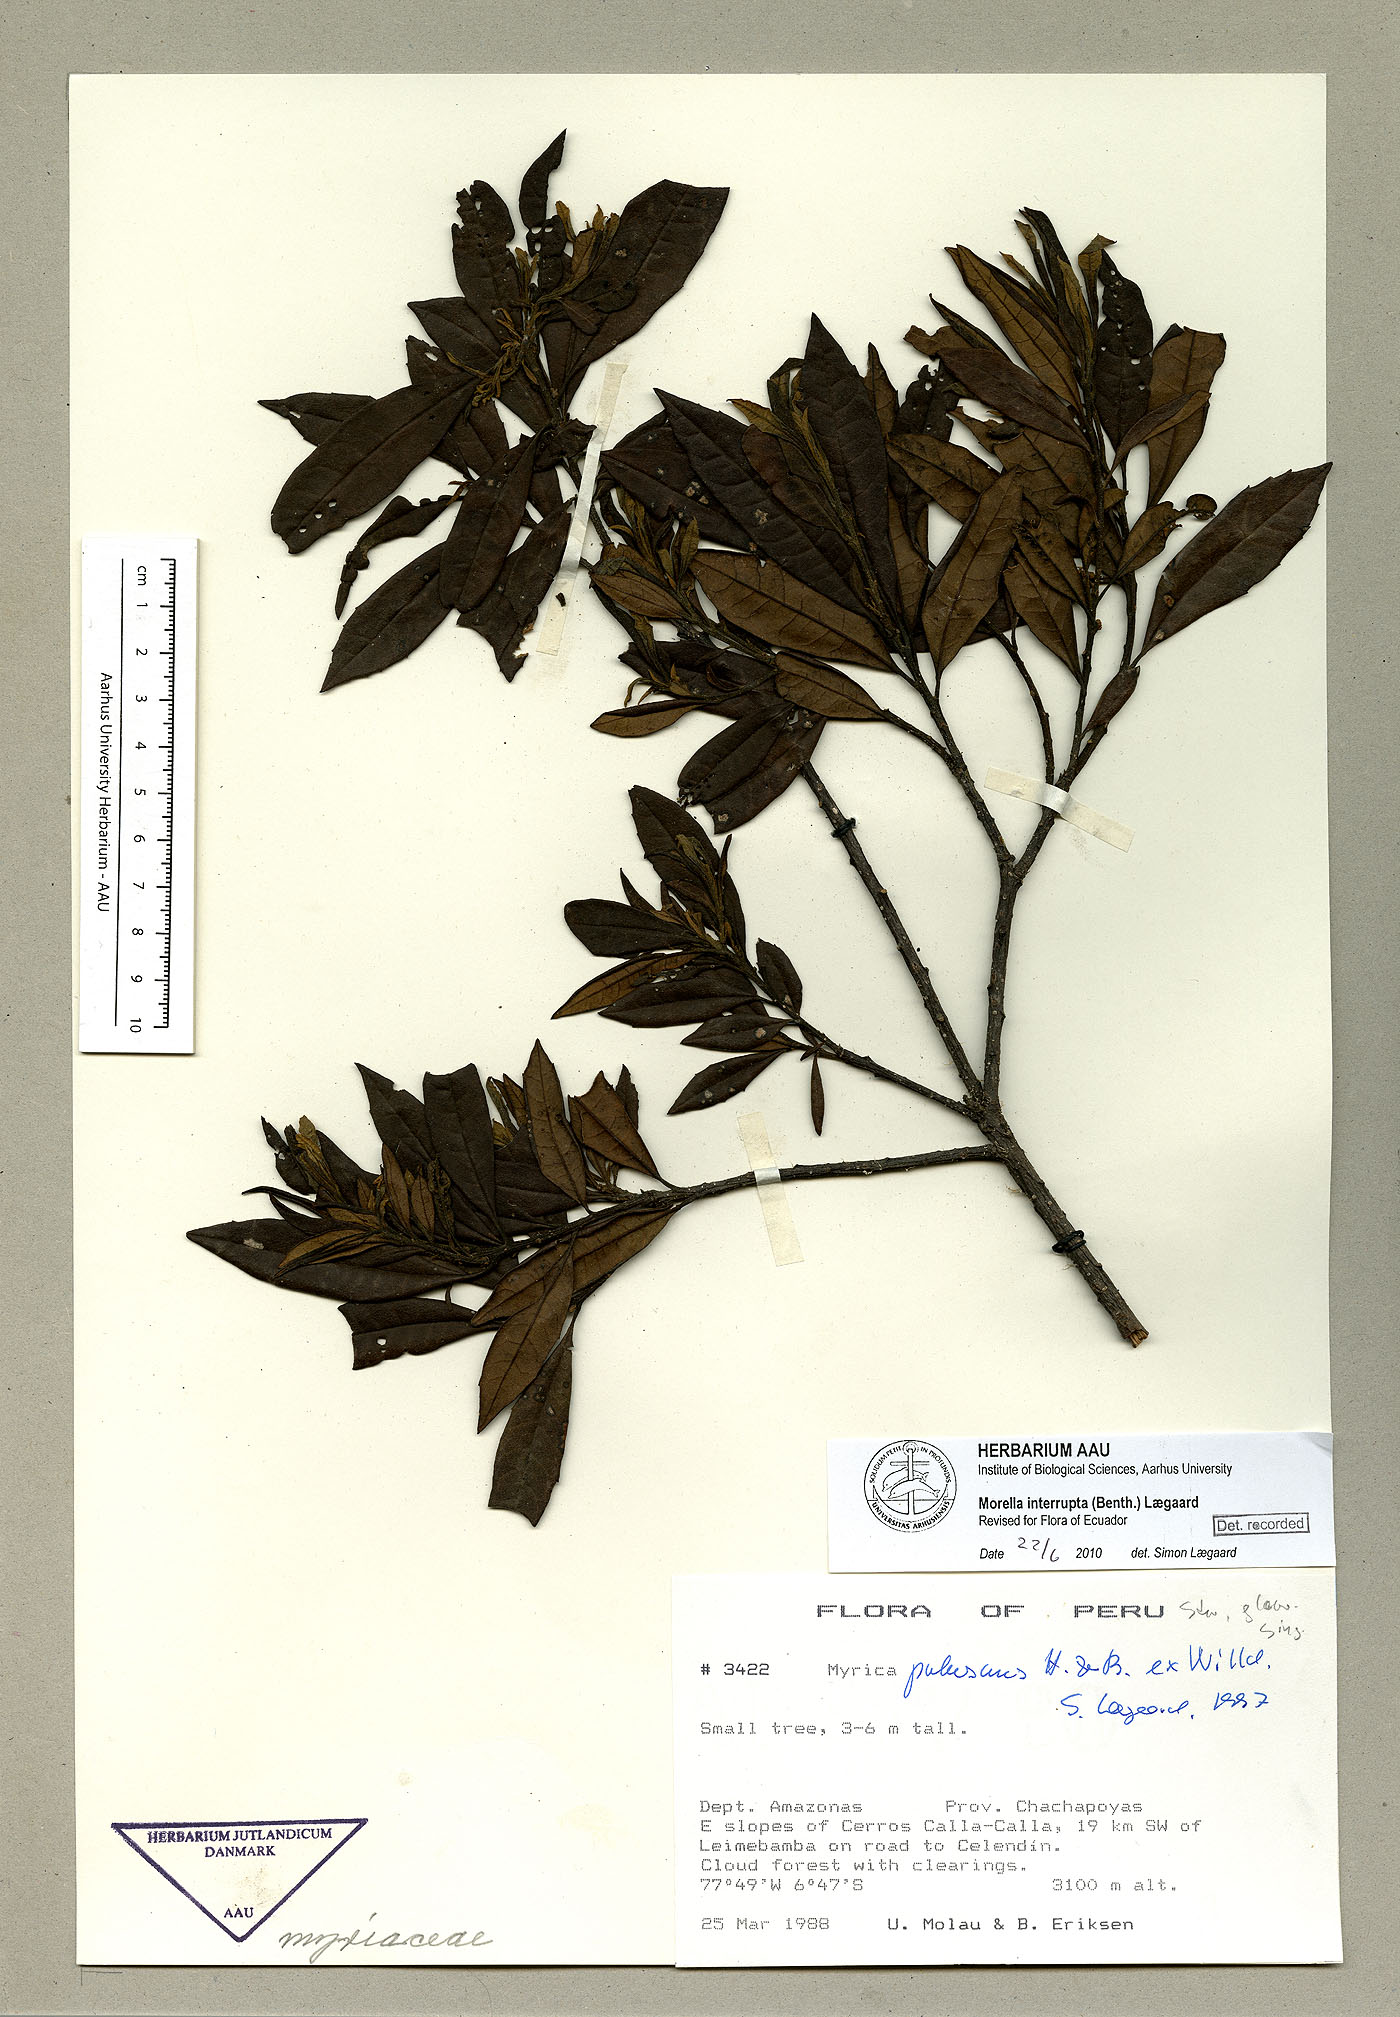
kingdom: Plantae
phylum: Tracheophyta
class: Magnoliopsida
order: Fagales
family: Myricaceae
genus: Morella
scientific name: Morella interrupta
